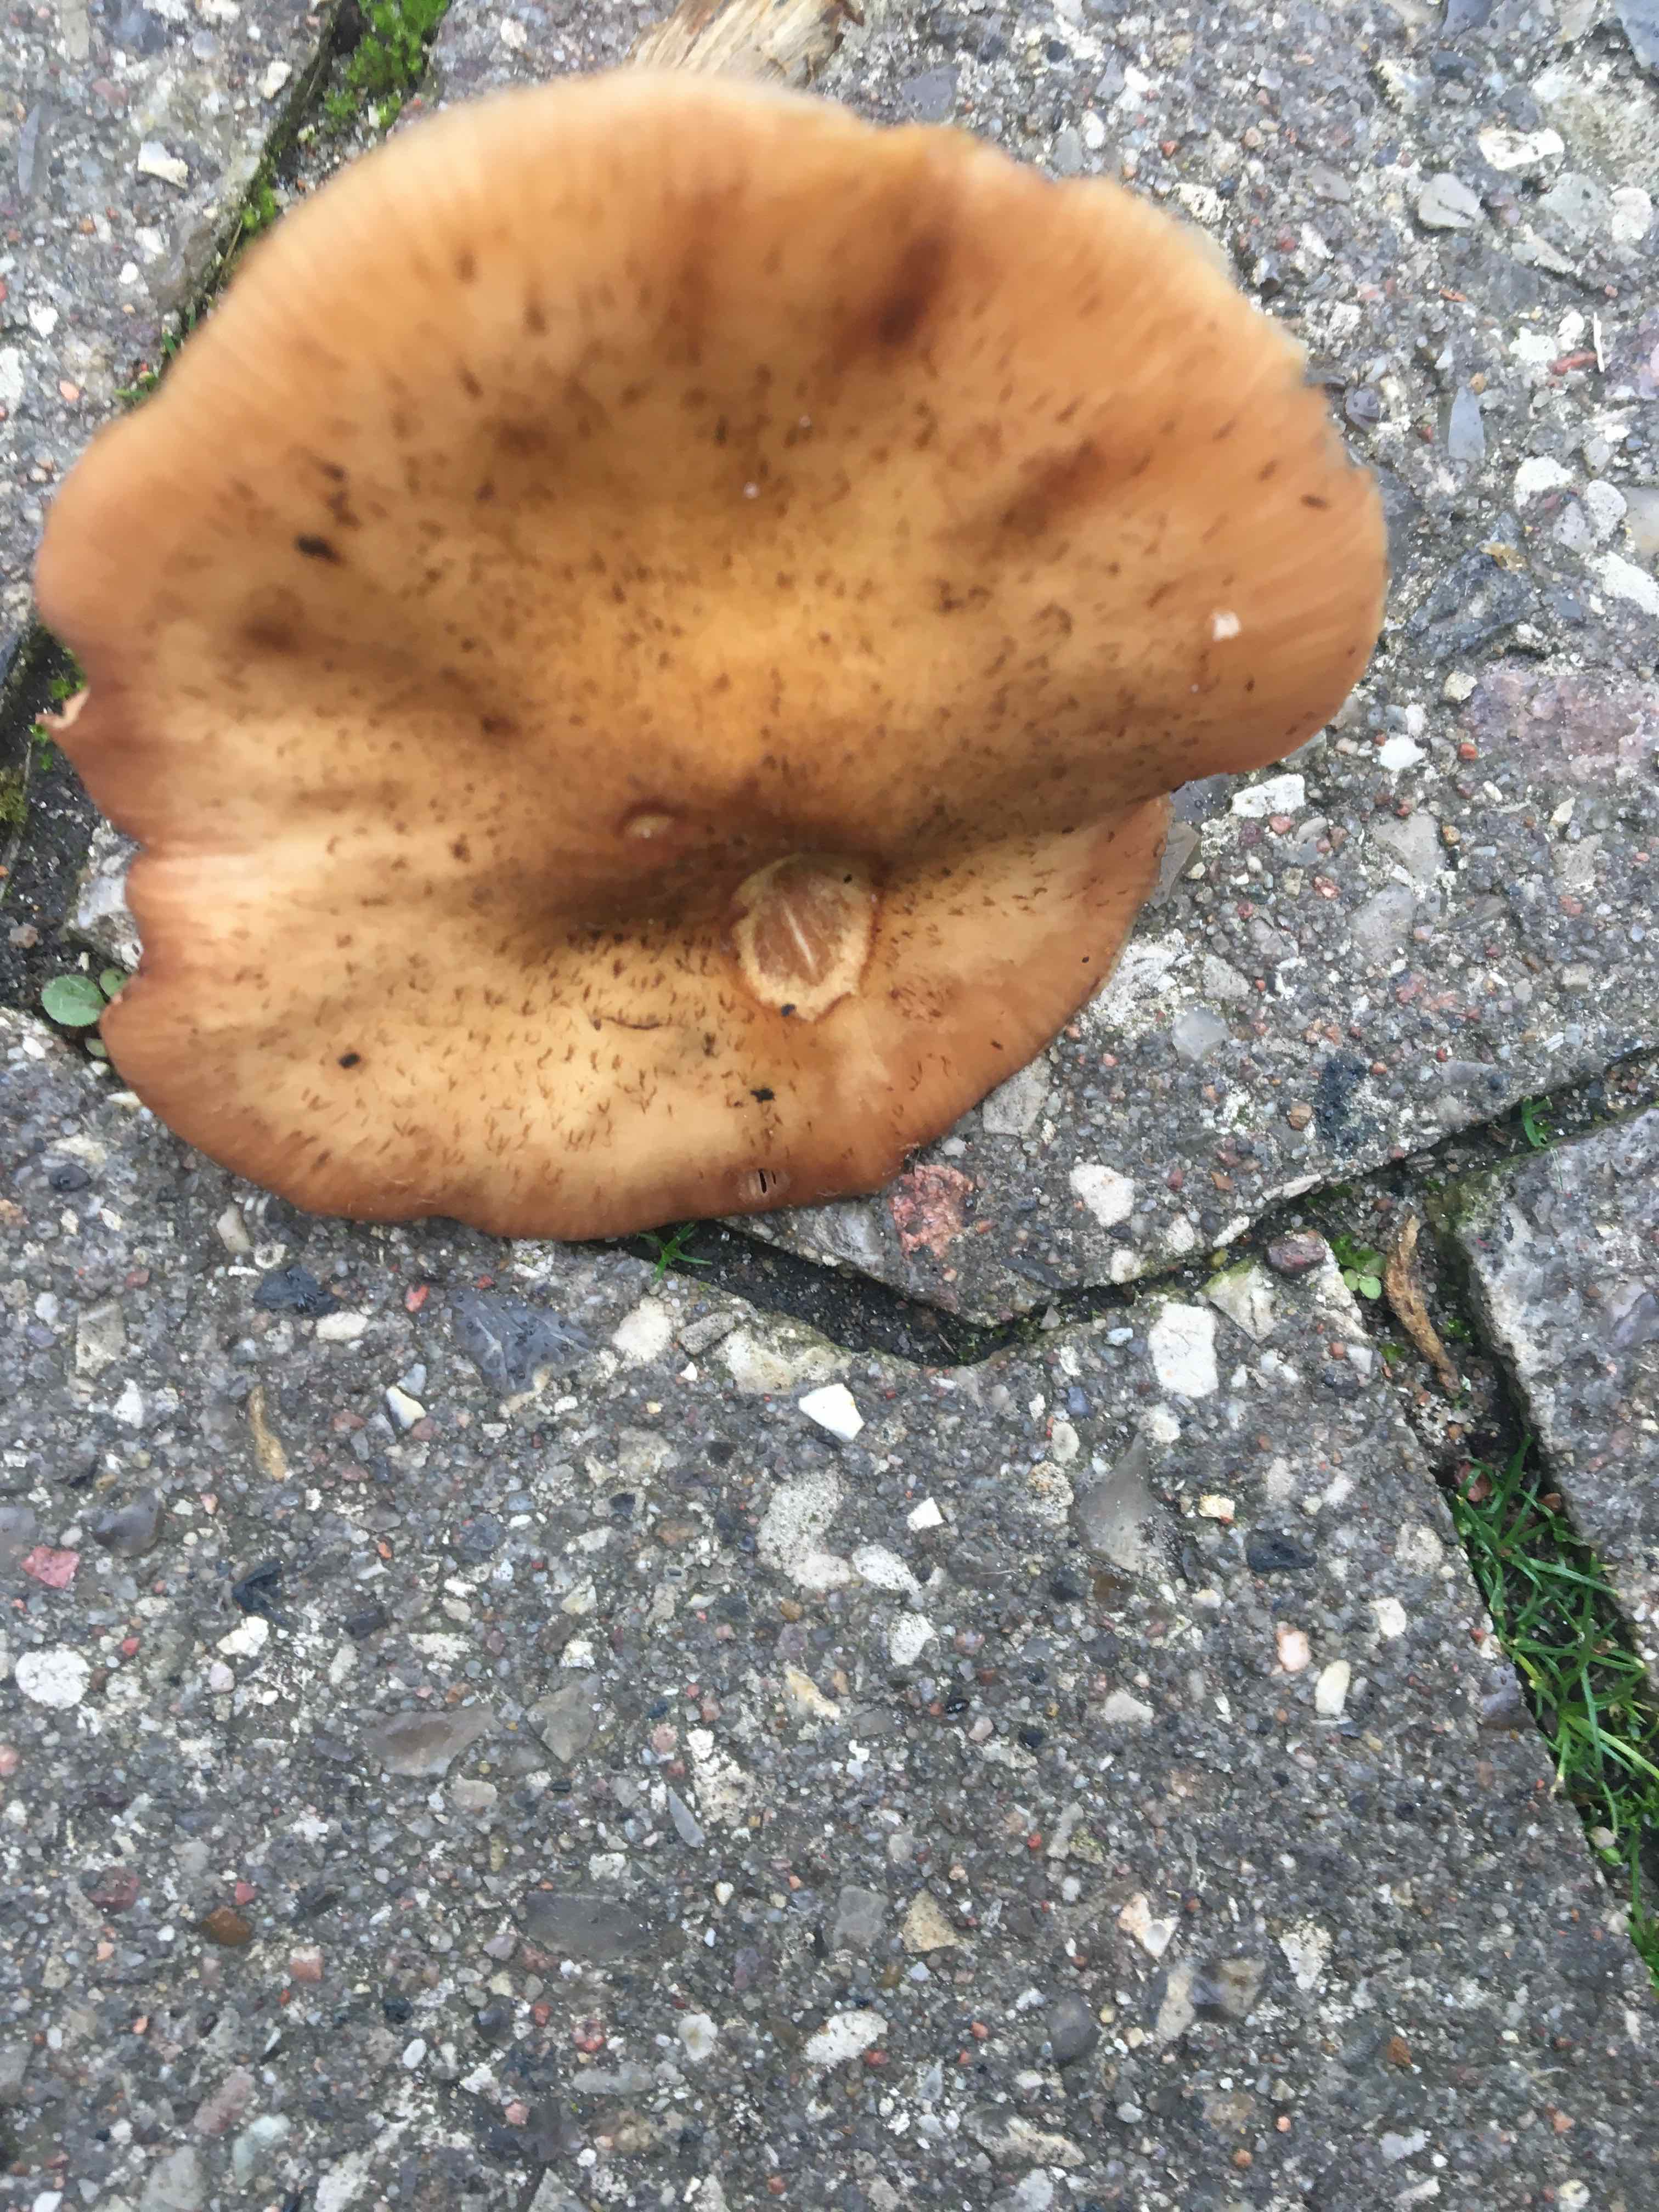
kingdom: Fungi
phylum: Basidiomycota
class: Agaricomycetes
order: Agaricales
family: Physalacriaceae
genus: Armillaria
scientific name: Armillaria
